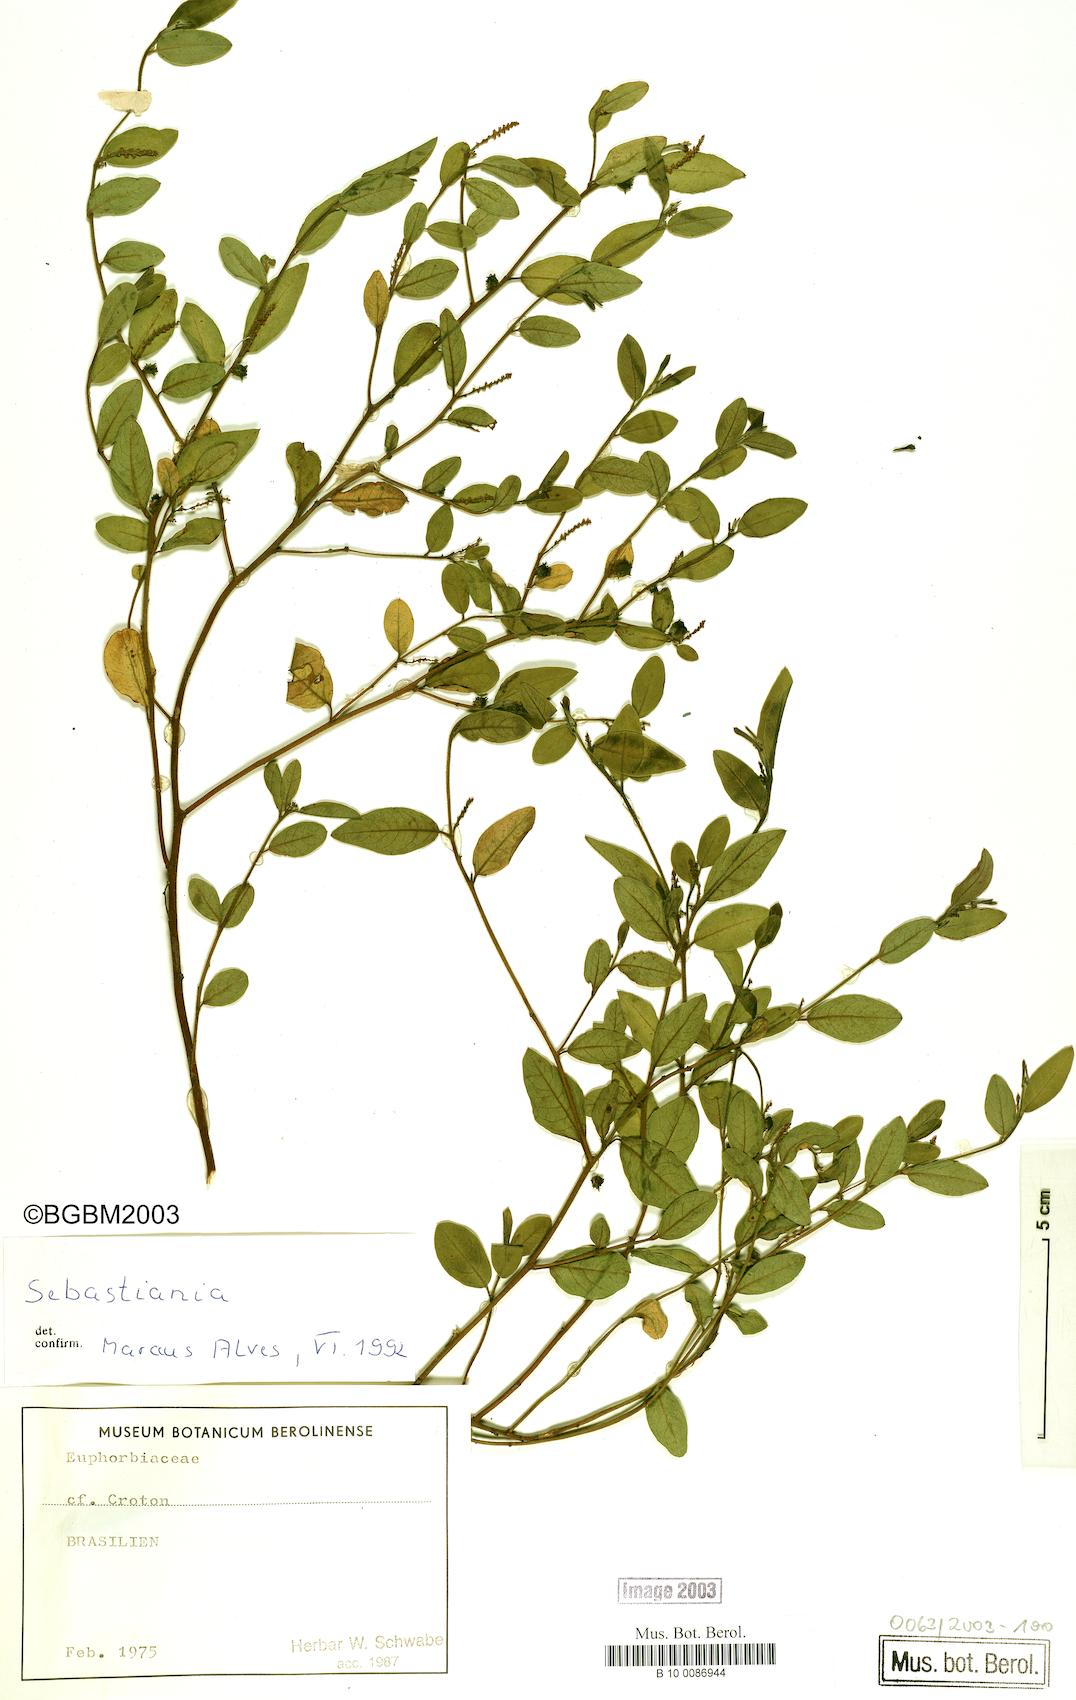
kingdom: Plantae
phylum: Tracheophyta
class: Magnoliopsida
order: Malpighiales
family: Euphorbiaceae
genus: Sebastiania
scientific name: Sebastiania
